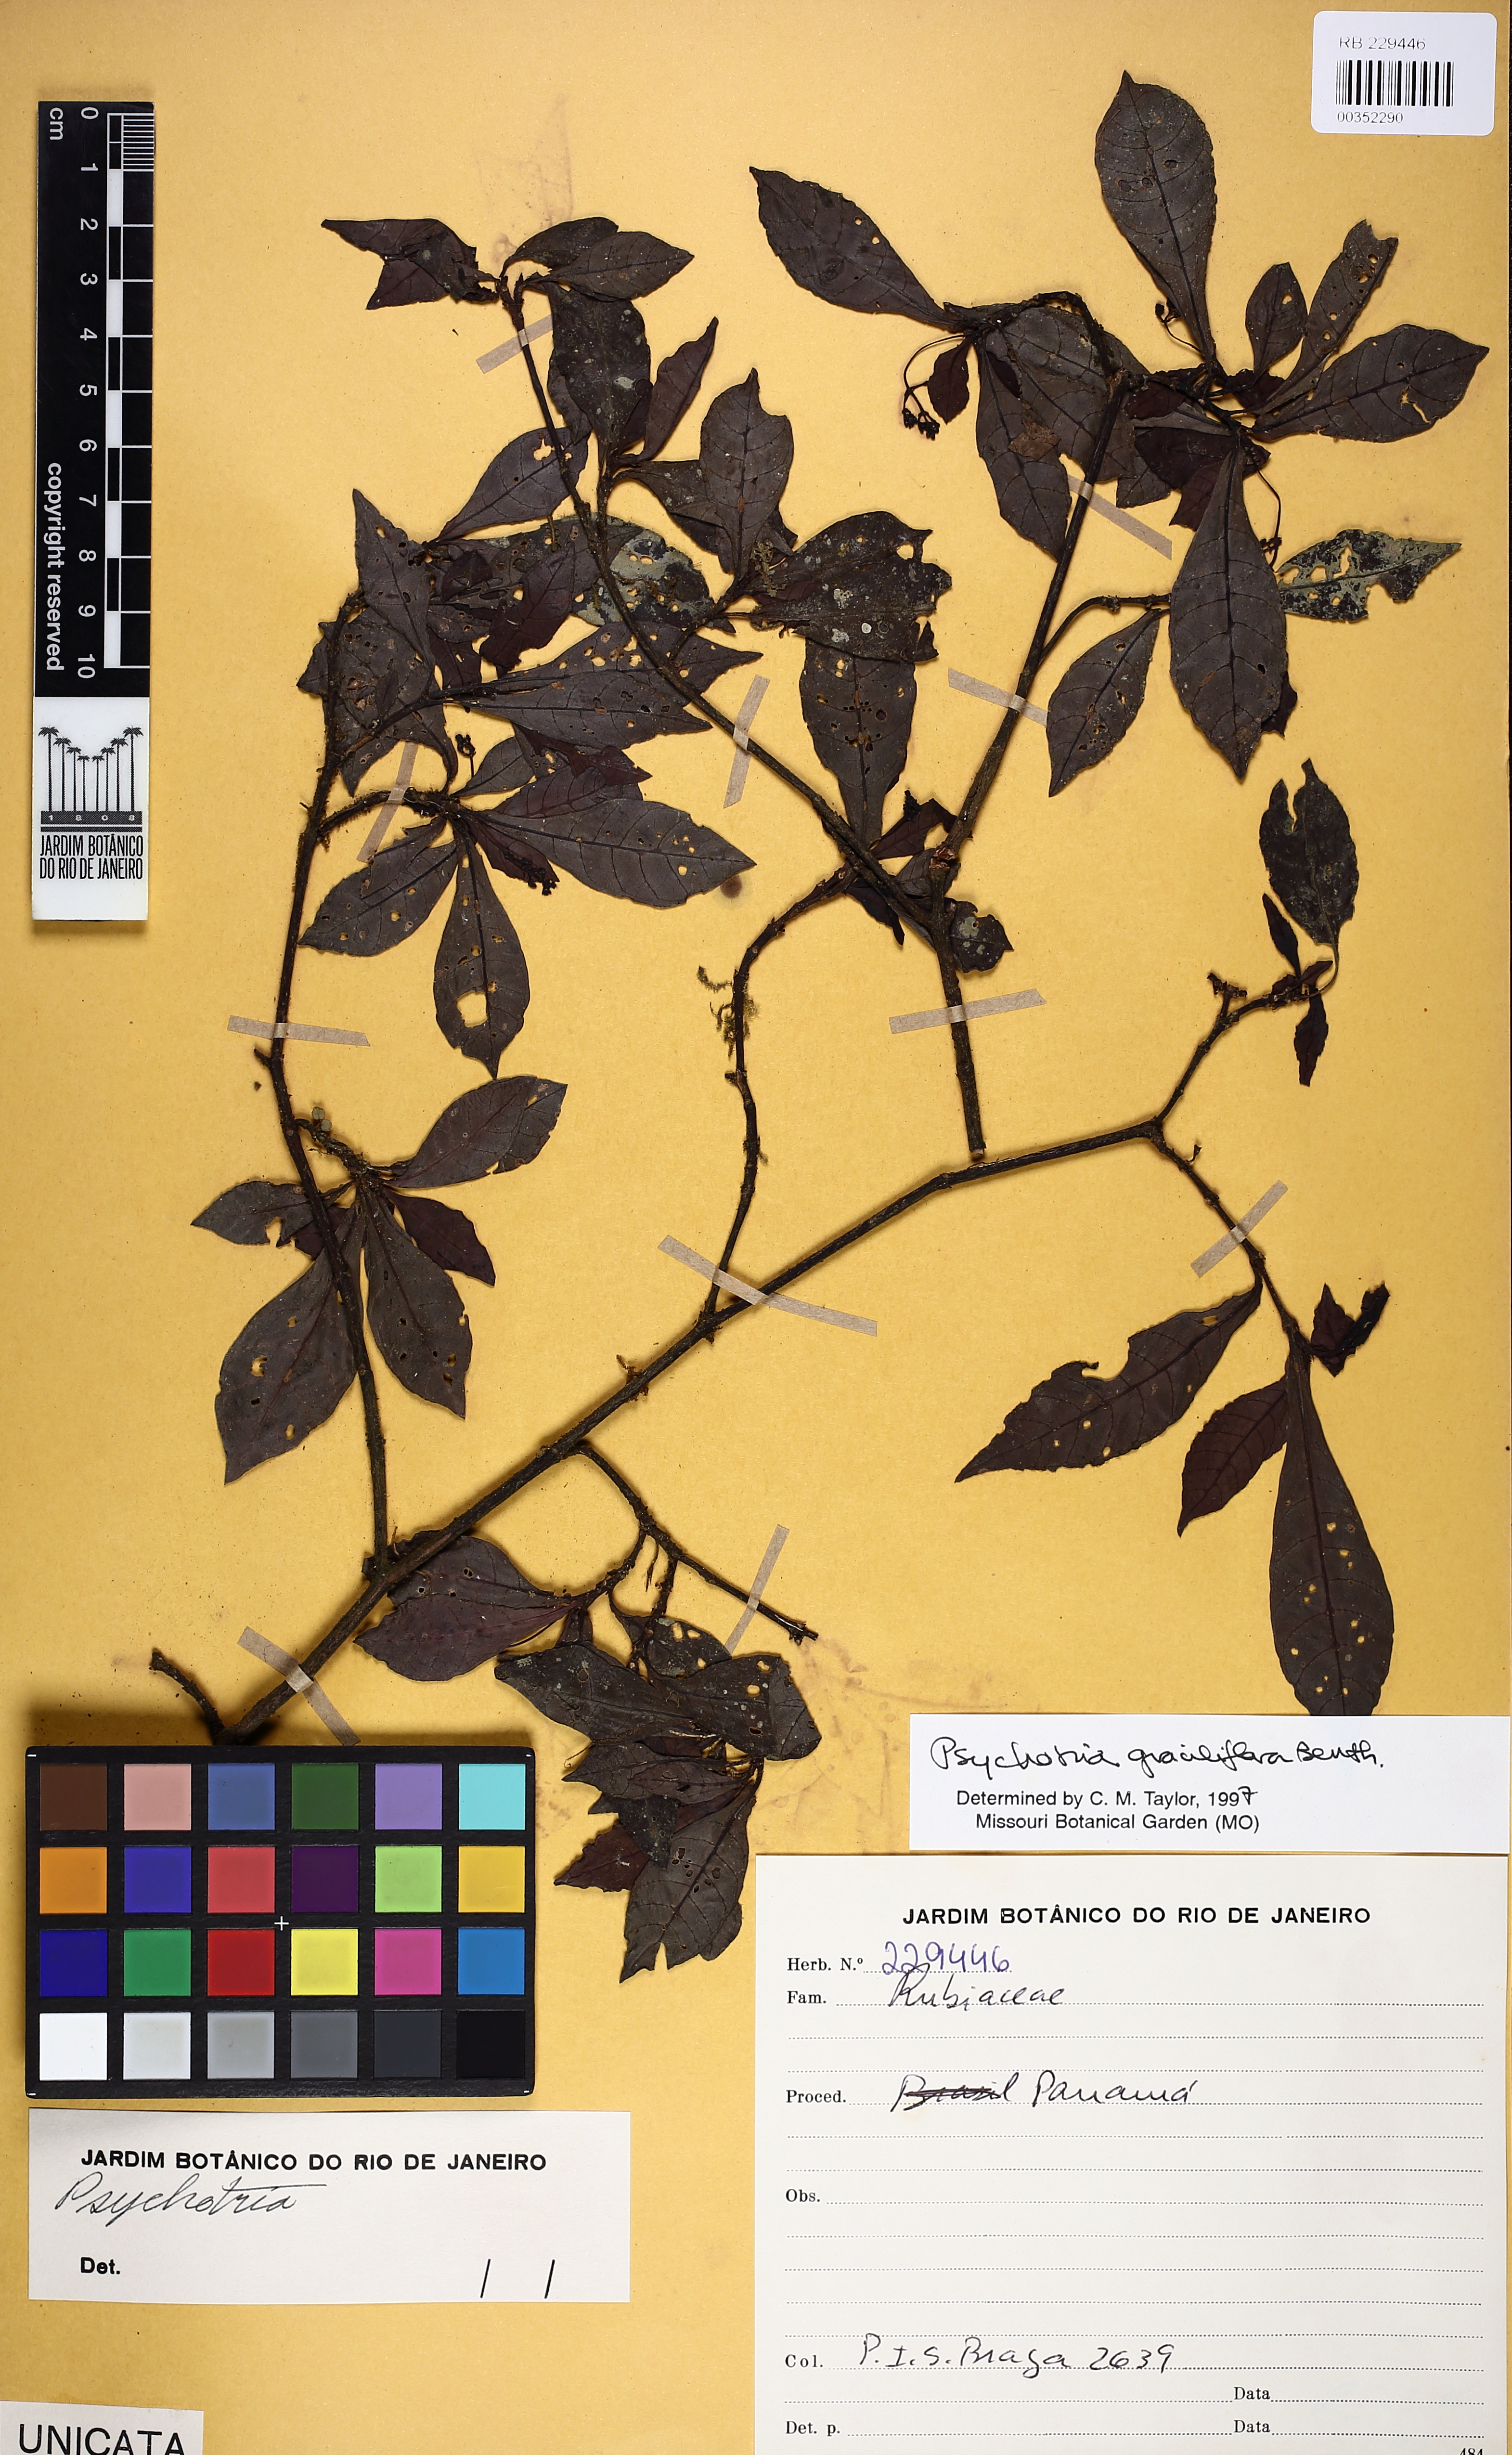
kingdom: Plantae
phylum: Tracheophyta
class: Magnoliopsida
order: Gentianales
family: Rubiaceae
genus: Psychotria
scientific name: Psychotria biaristata
